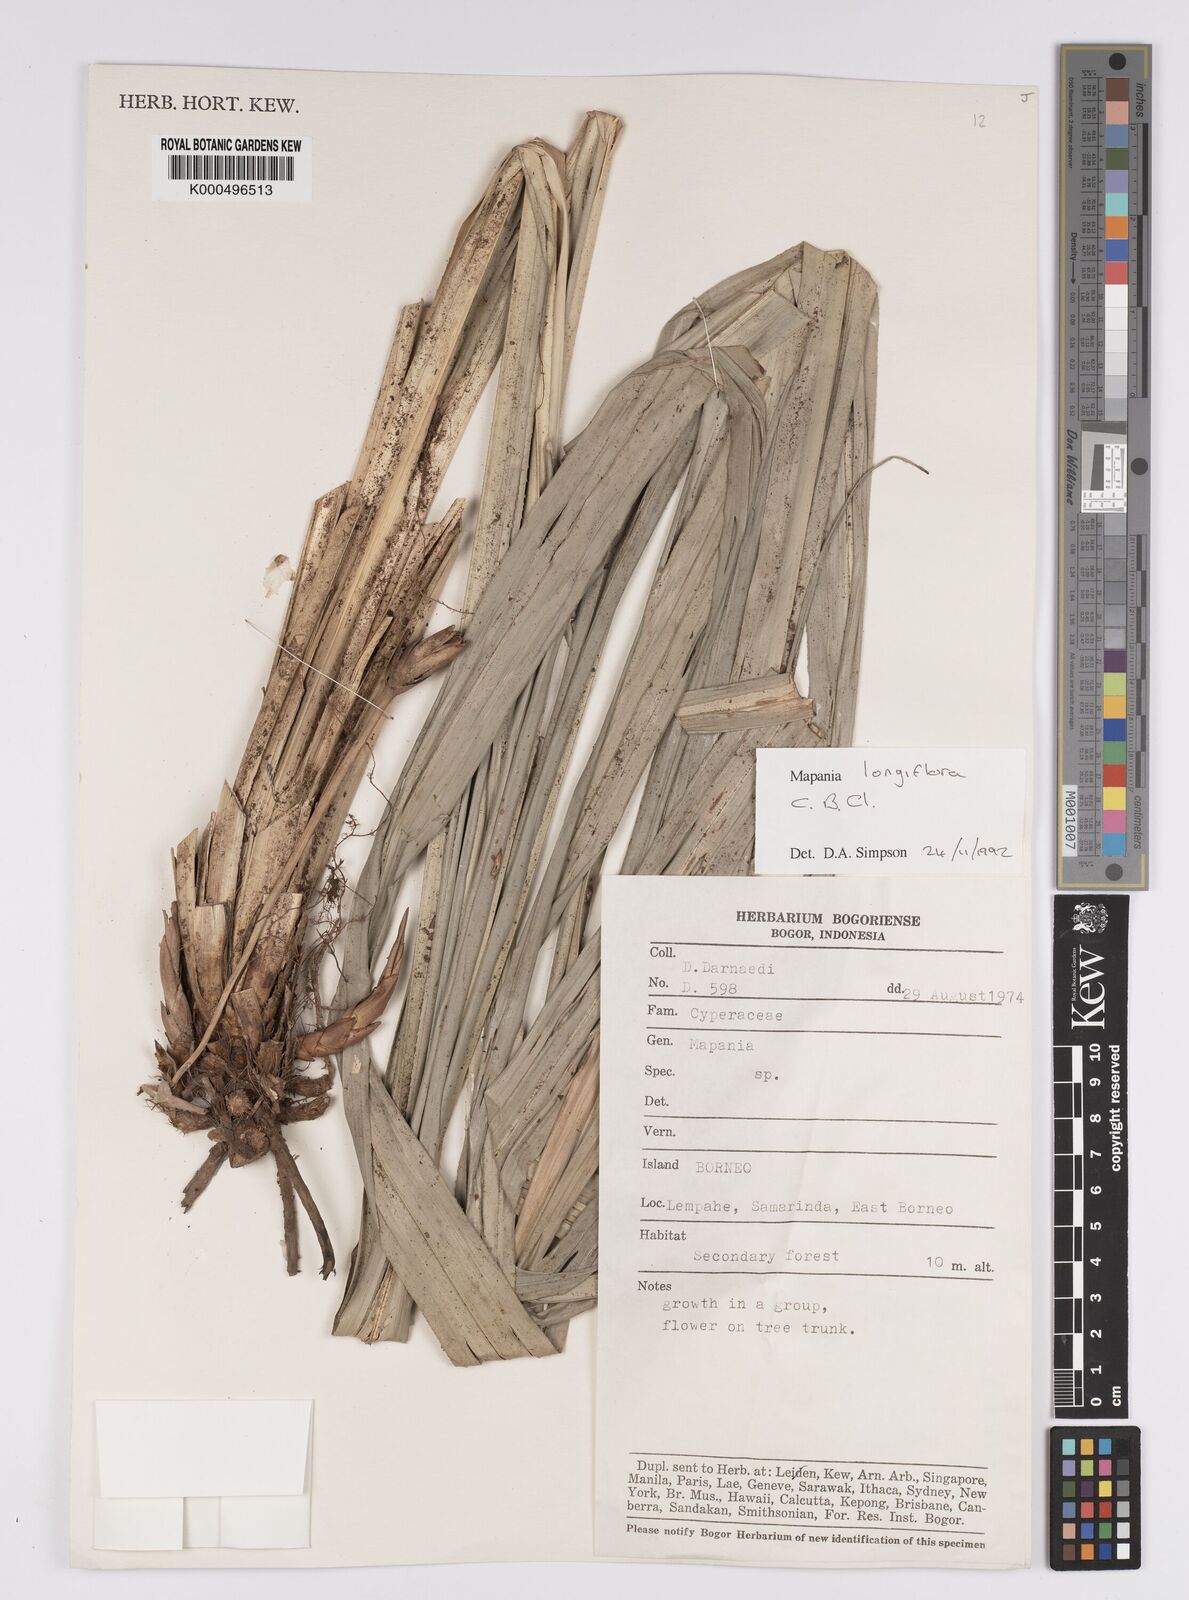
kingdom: Plantae
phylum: Tracheophyta
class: Liliopsida
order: Poales
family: Cyperaceae
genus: Mapania
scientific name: Mapania longiflora
